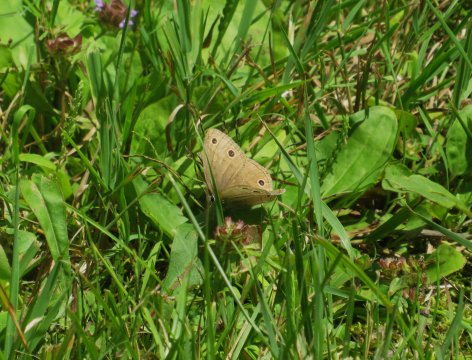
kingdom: Animalia
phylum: Arthropoda
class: Insecta
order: Lepidoptera
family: Nymphalidae
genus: Euptychia
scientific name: Euptychia cymela
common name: Little Wood Satyr
